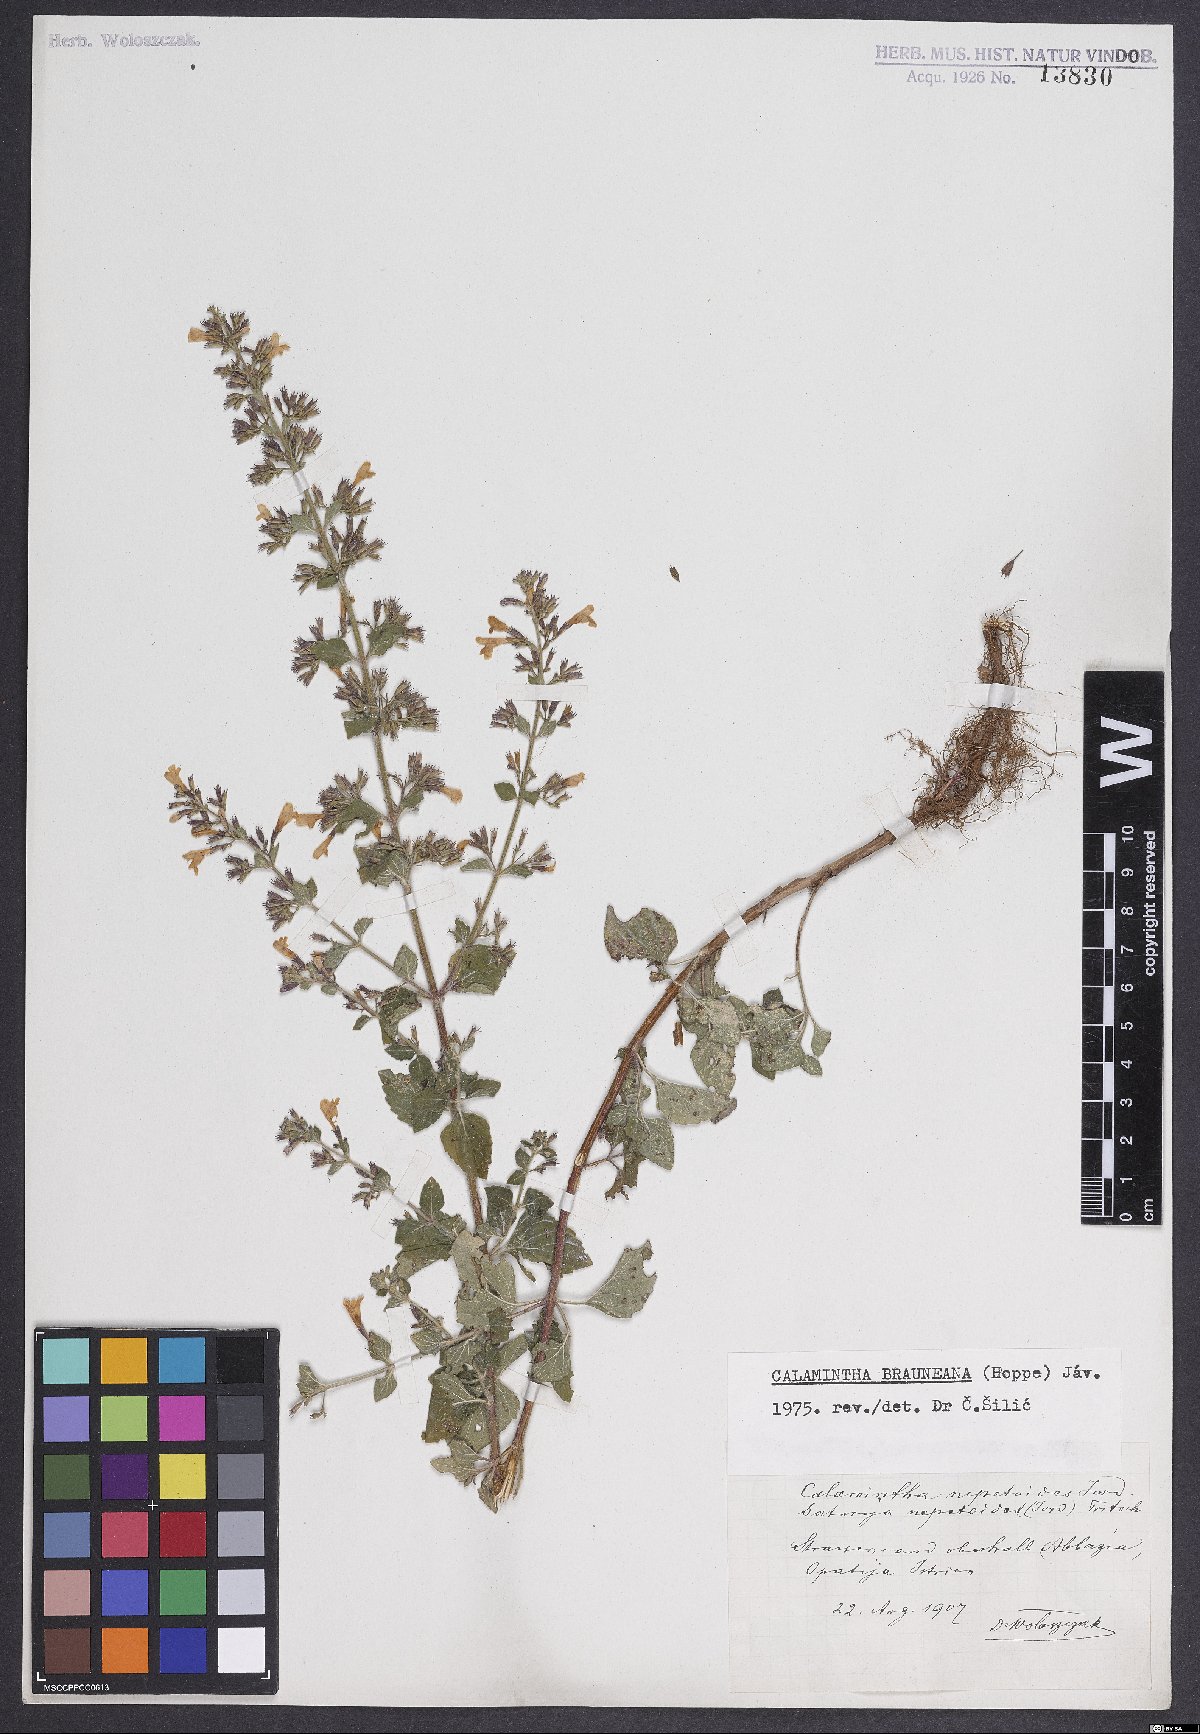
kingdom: Plantae
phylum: Tracheophyta
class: Magnoliopsida
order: Lamiales
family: Lamiaceae
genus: Clinopodium
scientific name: Clinopodium nepeta
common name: Lesser calamint
